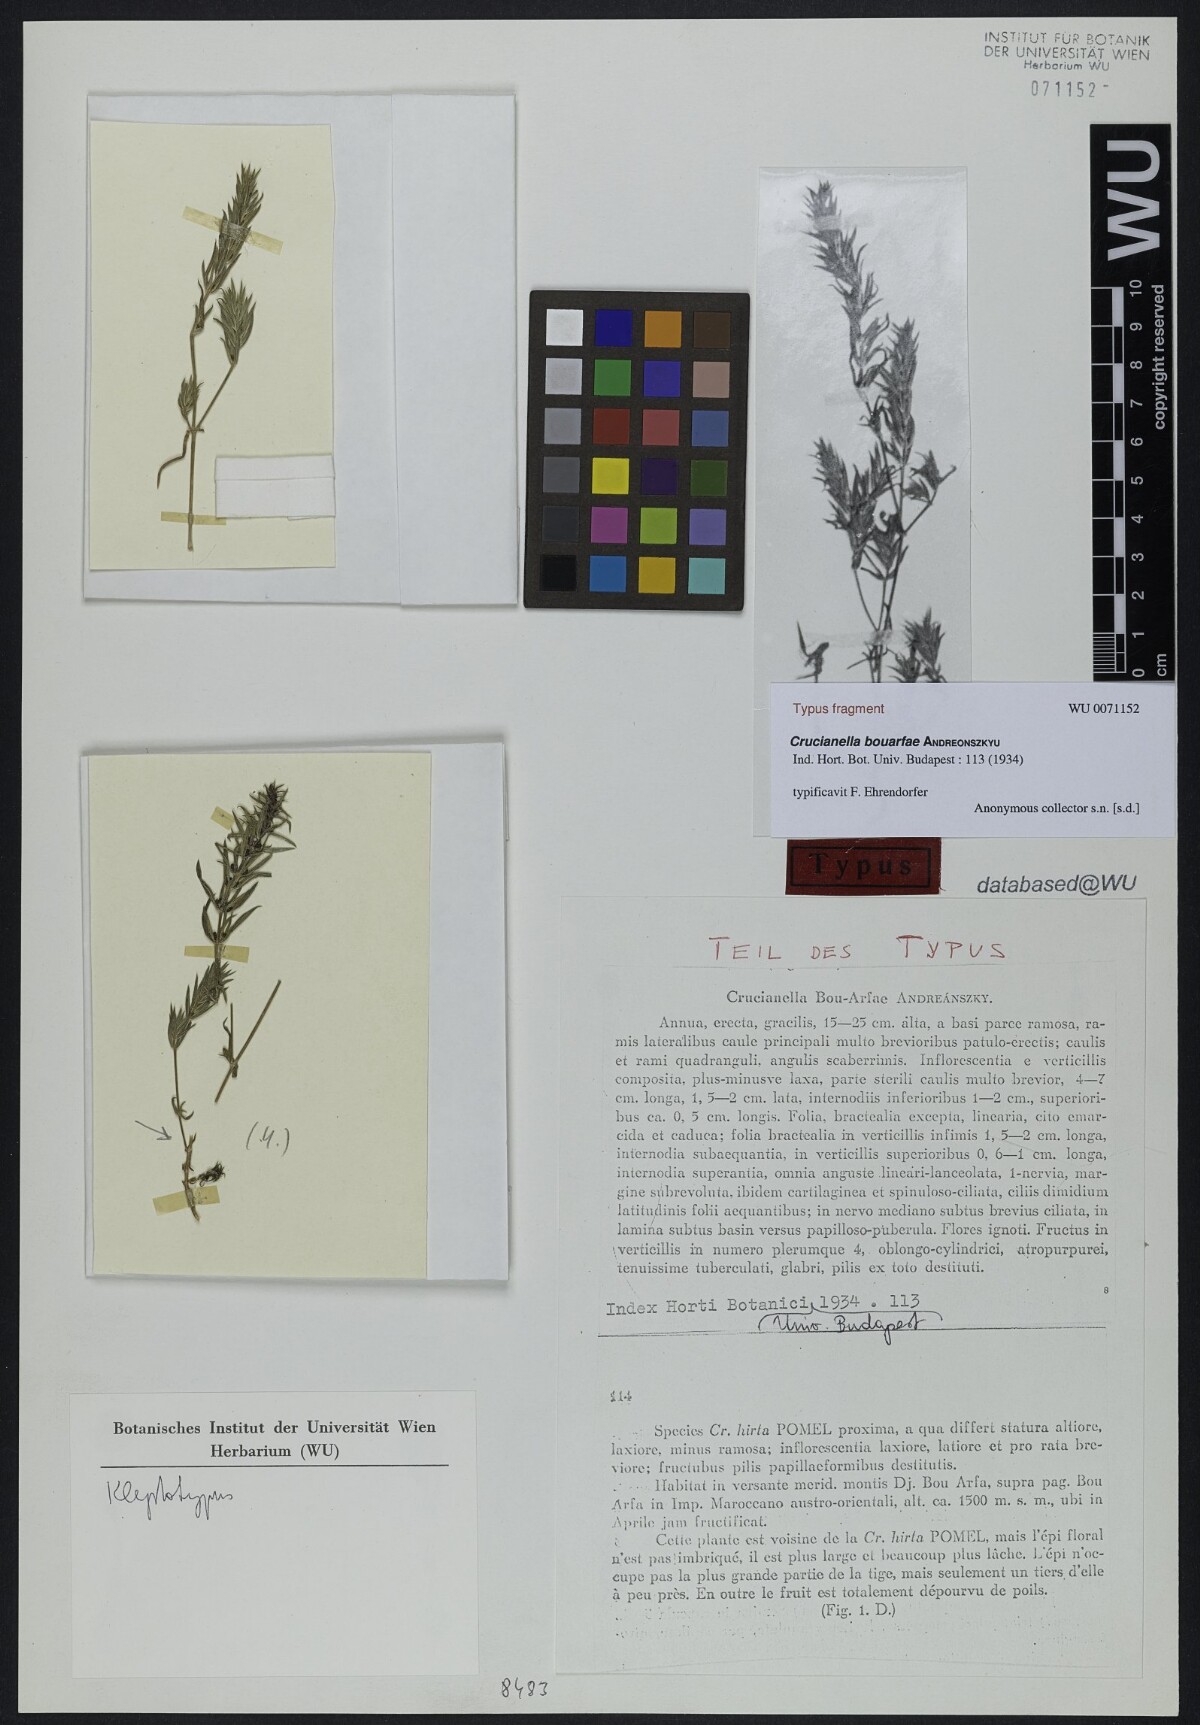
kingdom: Plantae
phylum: Tracheophyta
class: Magnoliopsida
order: Gentianales
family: Rubiaceae
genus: Crucianella
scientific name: Crucianella hirta
